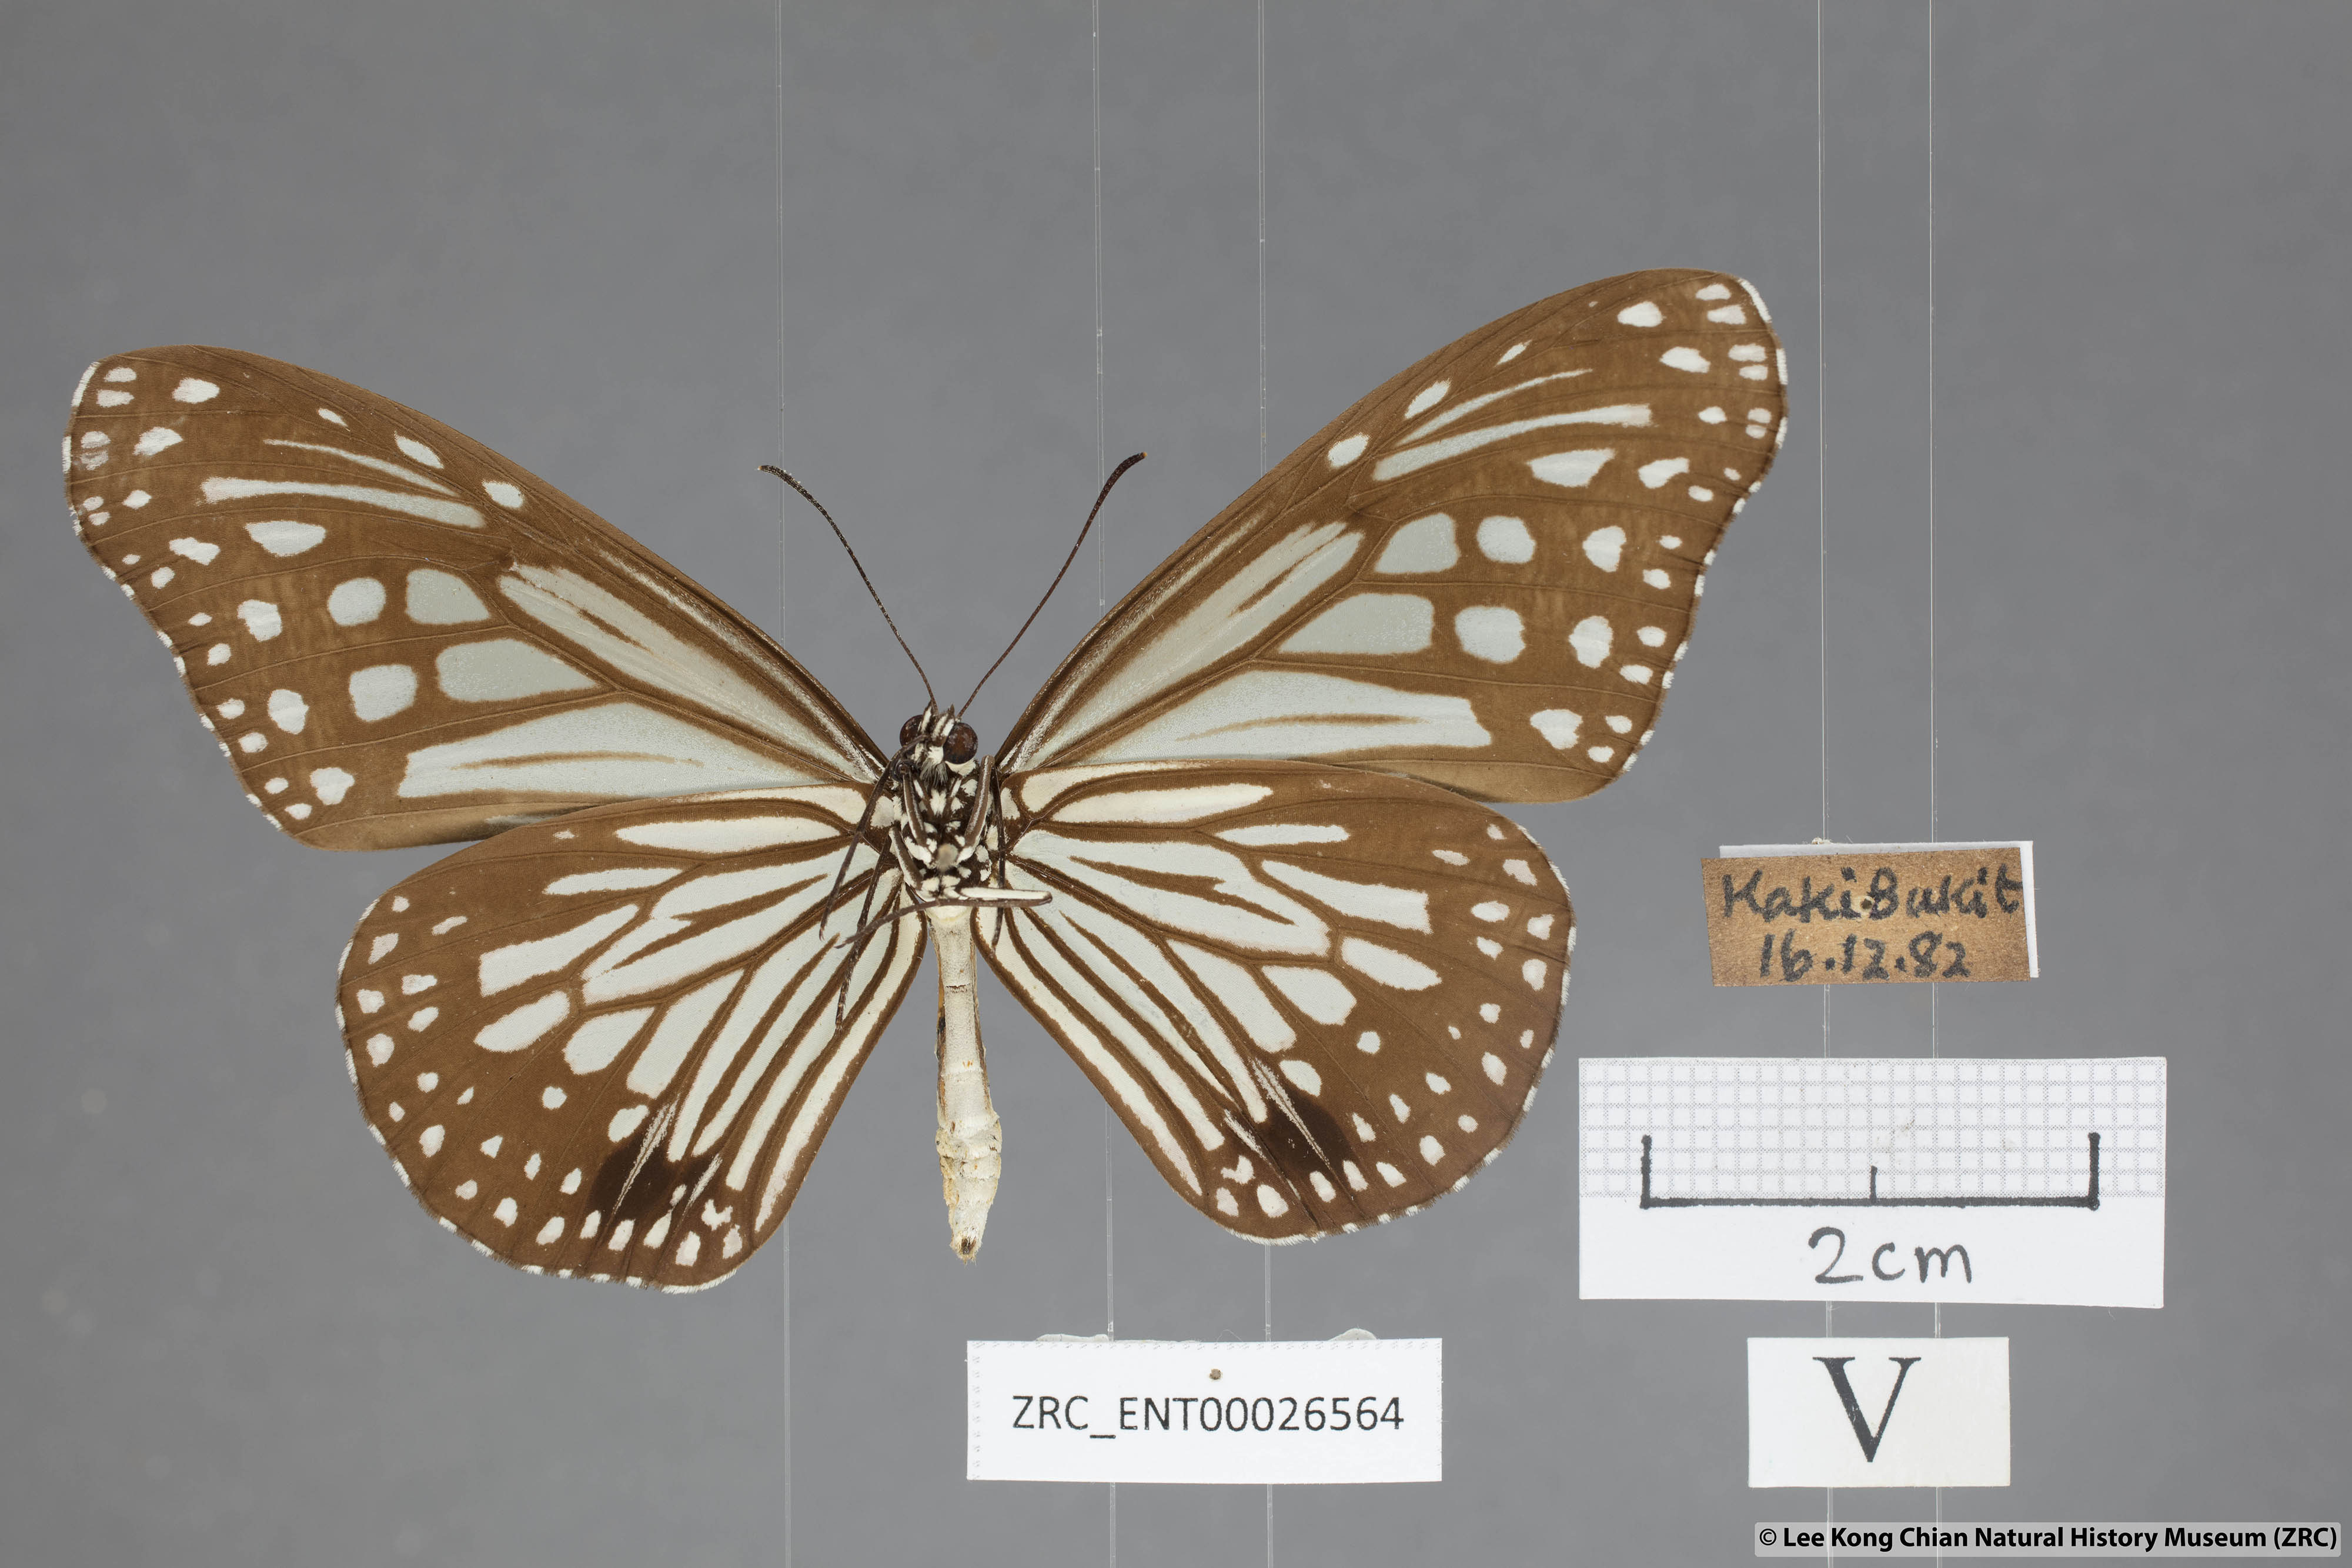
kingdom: Animalia
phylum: Arthropoda
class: Insecta
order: Lepidoptera
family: Nymphalidae
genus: Parantica
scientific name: Parantica aglea
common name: Glassy tiger
